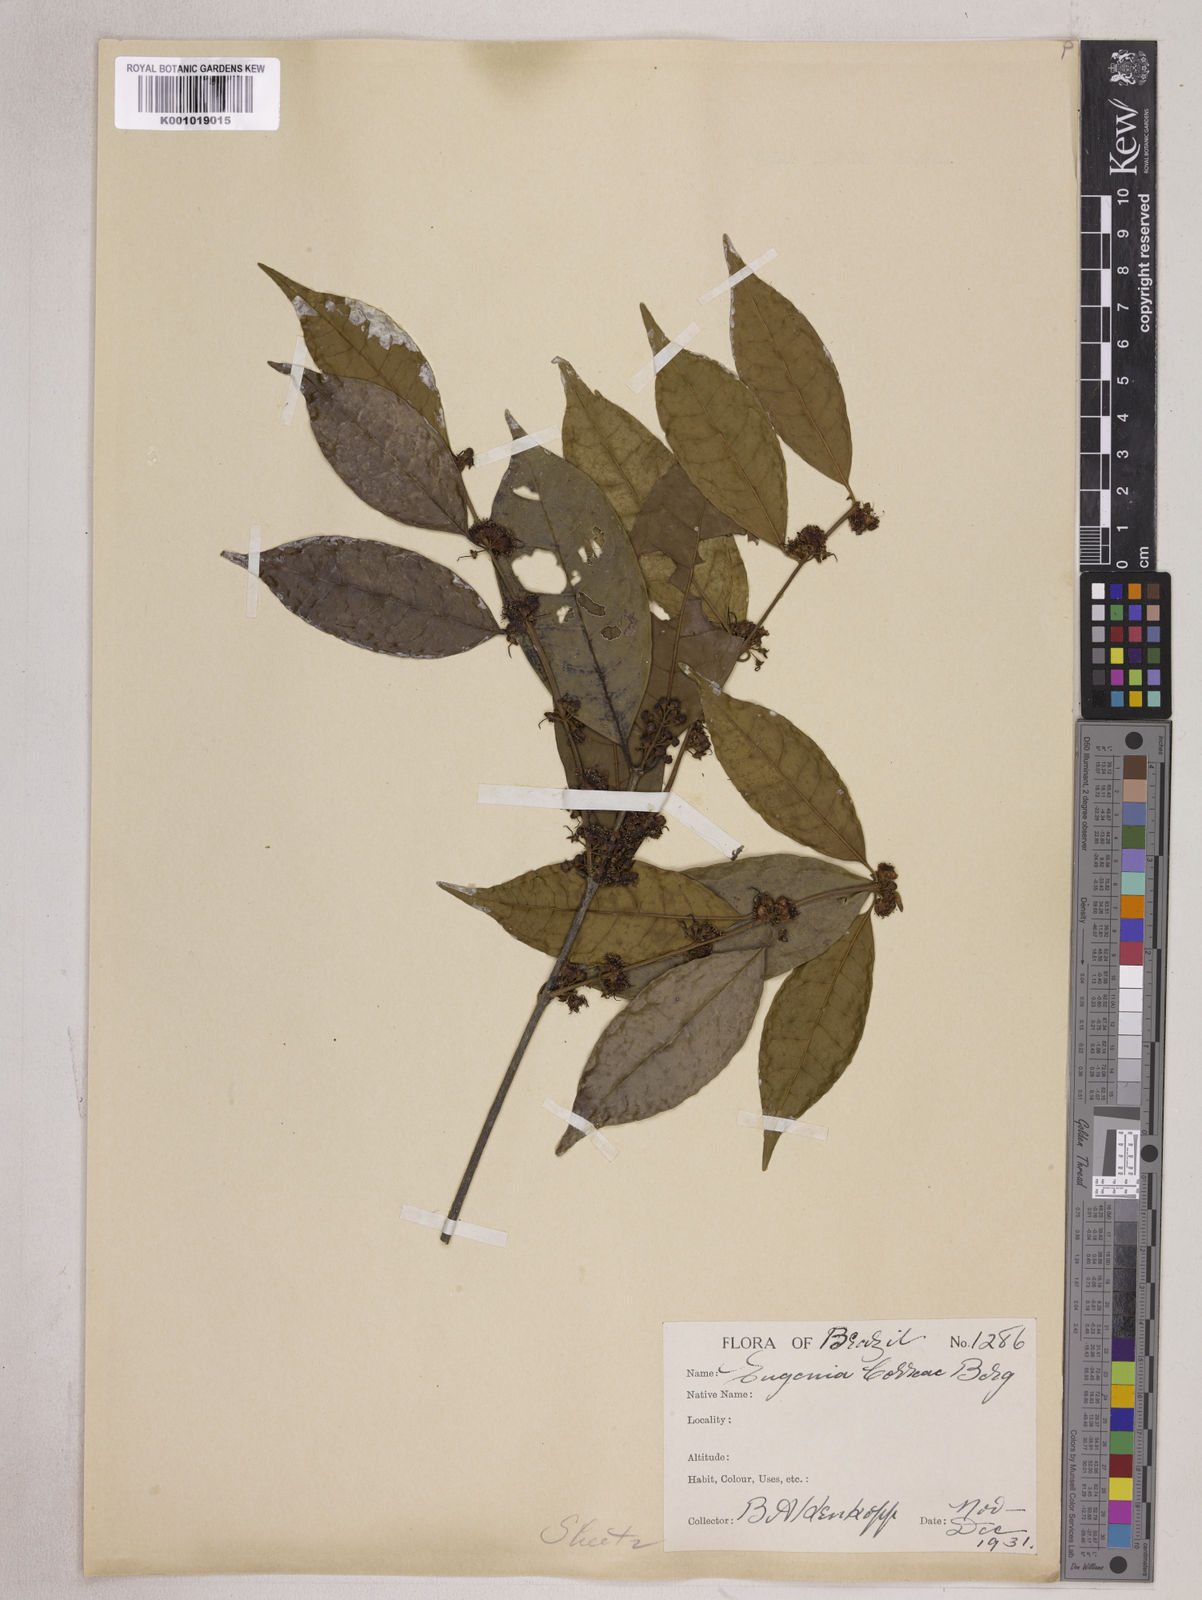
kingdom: Plantae
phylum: Tracheophyta
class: Magnoliopsida
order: Myrtales
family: Myrtaceae
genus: Eugenia
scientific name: Eugenia lambertiana
